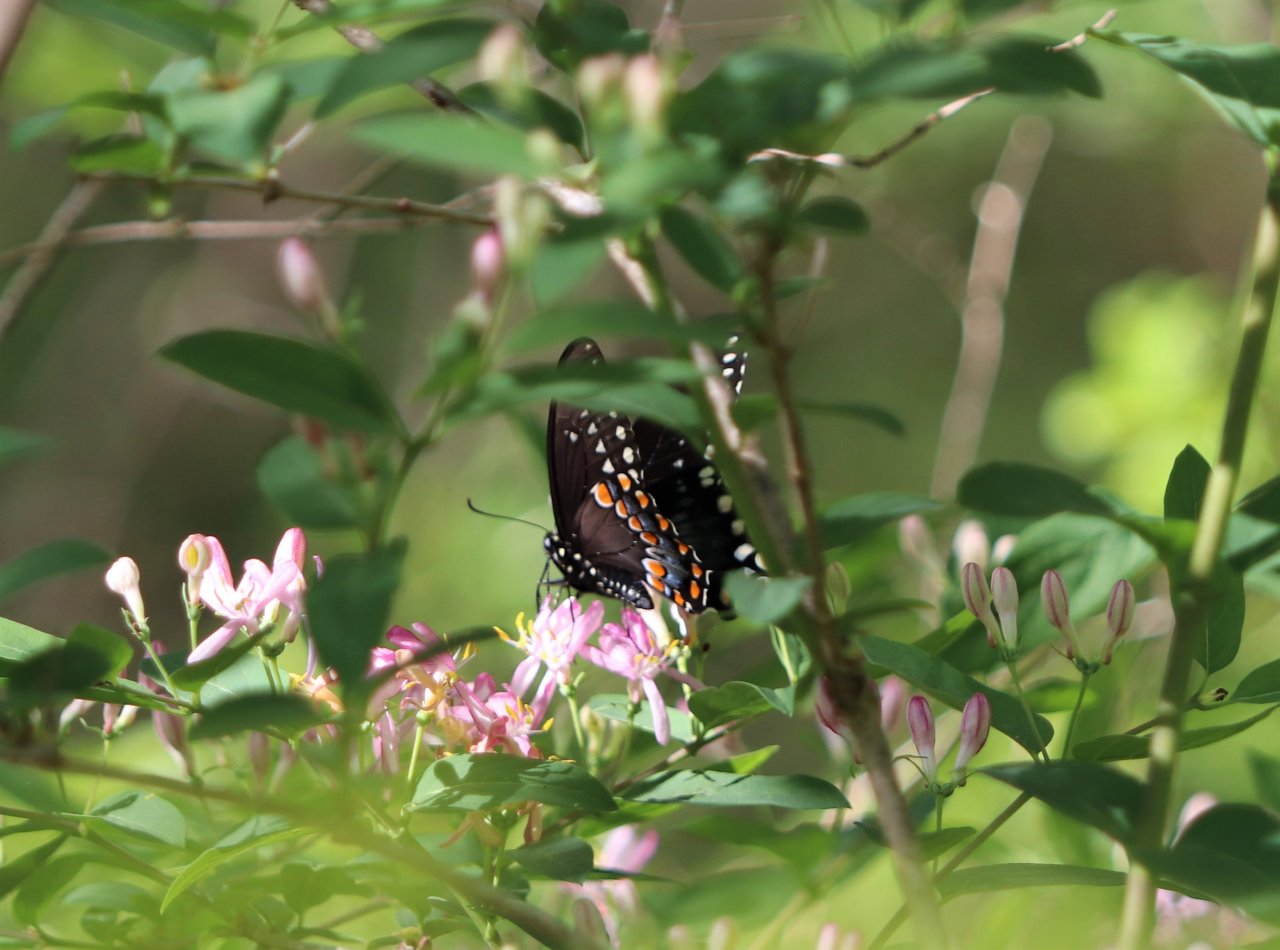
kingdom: Animalia
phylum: Arthropoda
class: Insecta
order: Lepidoptera
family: Papilionidae
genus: Papilio
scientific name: Papilio
